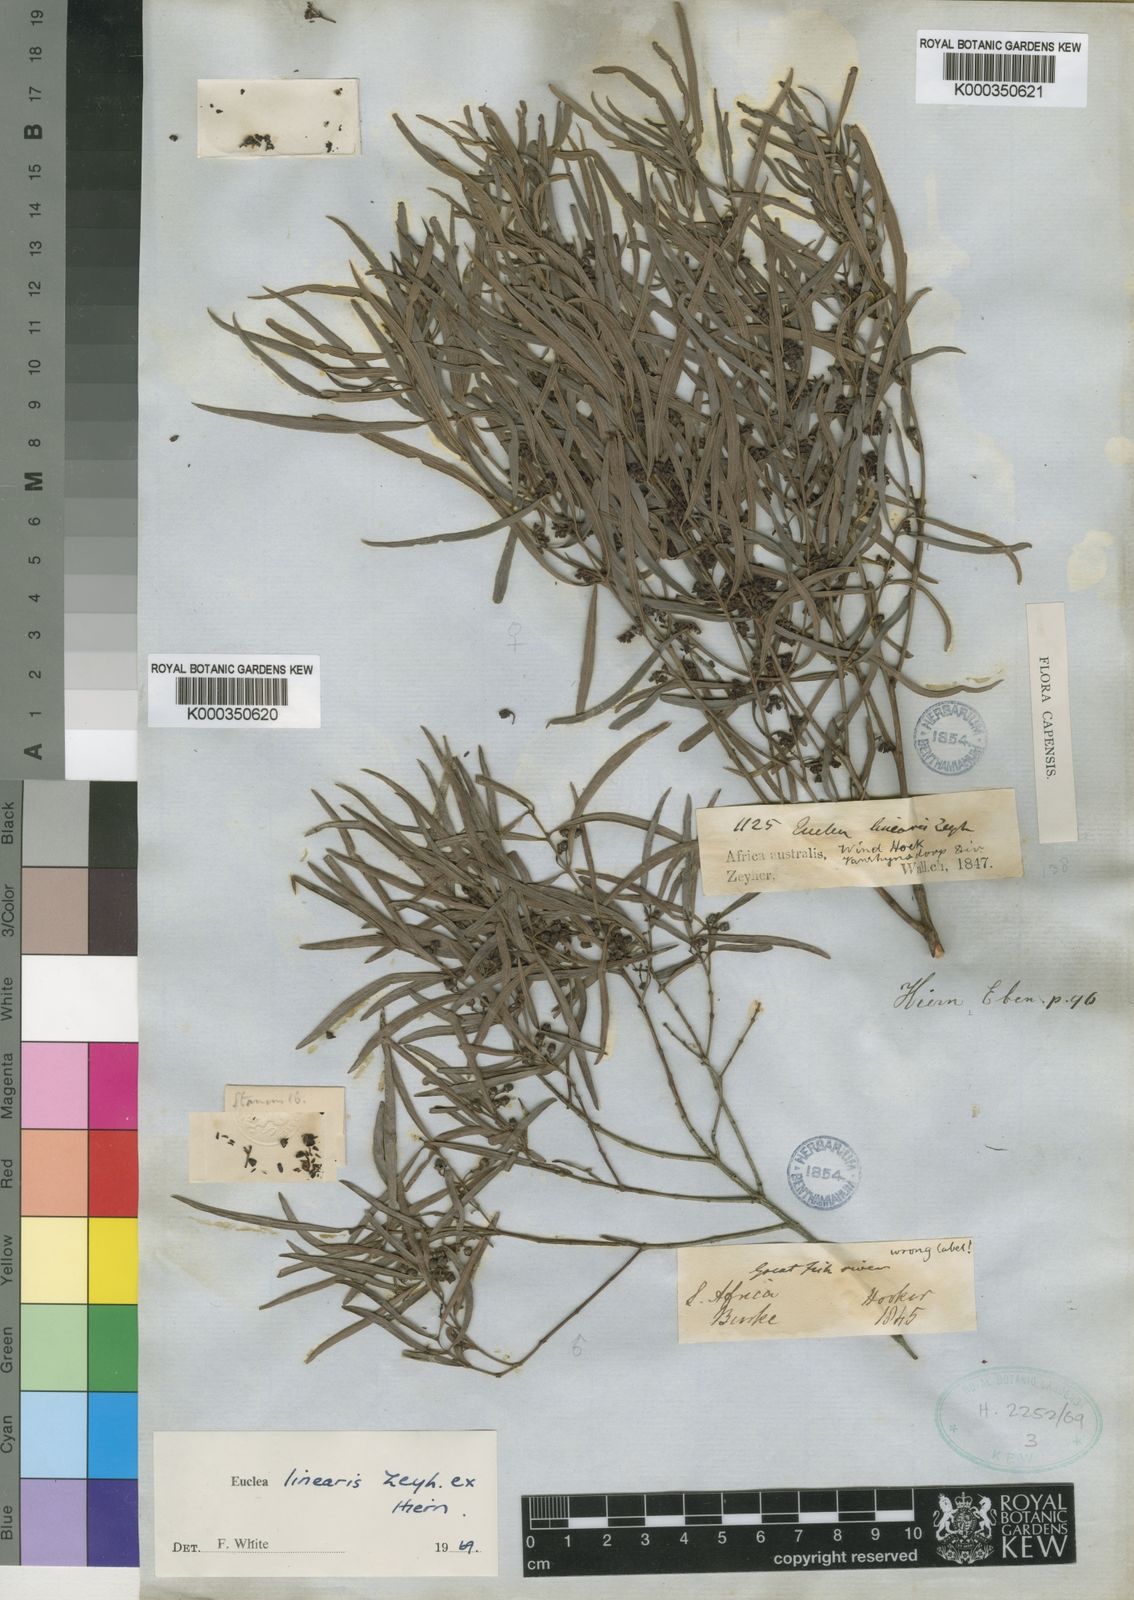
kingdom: Plantae
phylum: Tracheophyta
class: Magnoliopsida
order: Ericales
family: Ebenaceae
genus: Euclea
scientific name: Euclea
